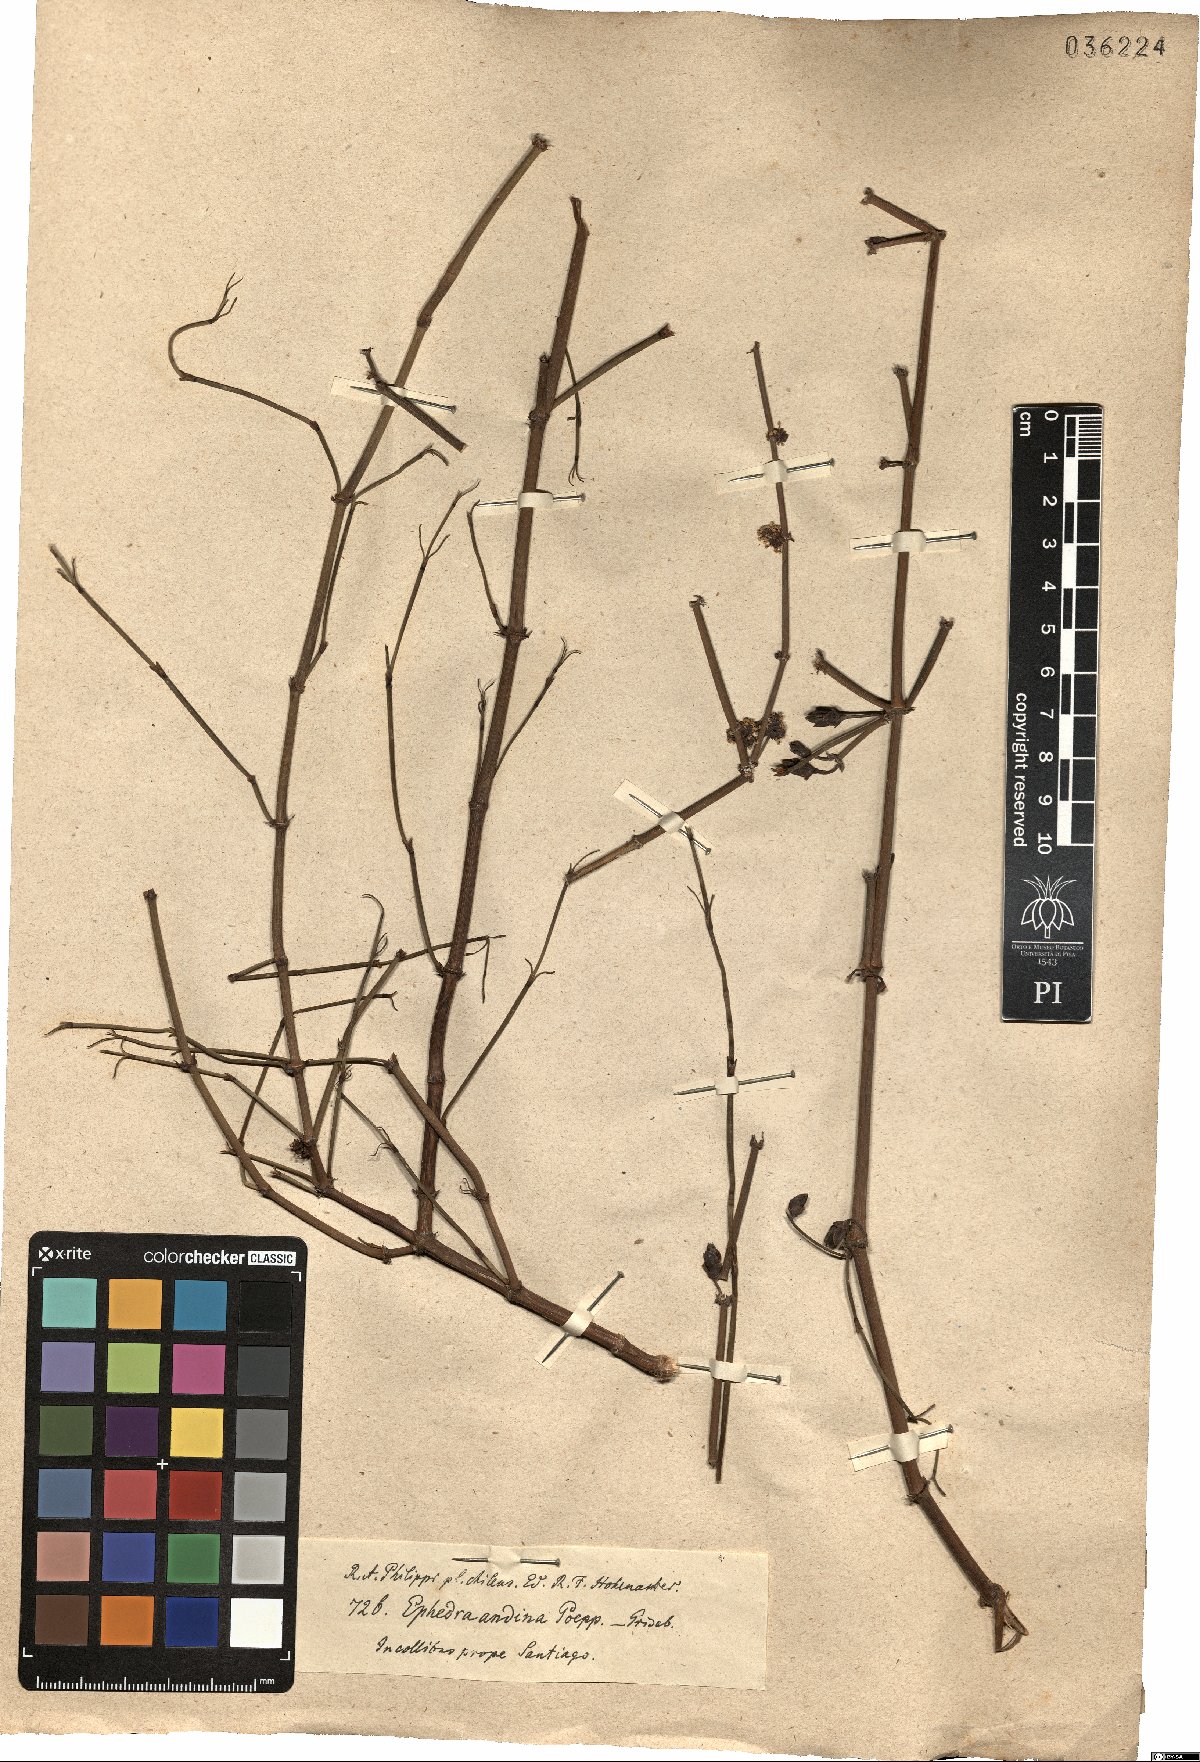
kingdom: Plantae
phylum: Tracheophyta
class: Gnetopsida
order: Ephedrales
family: Ephedraceae
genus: Ephedra
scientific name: Ephedra chilensis
